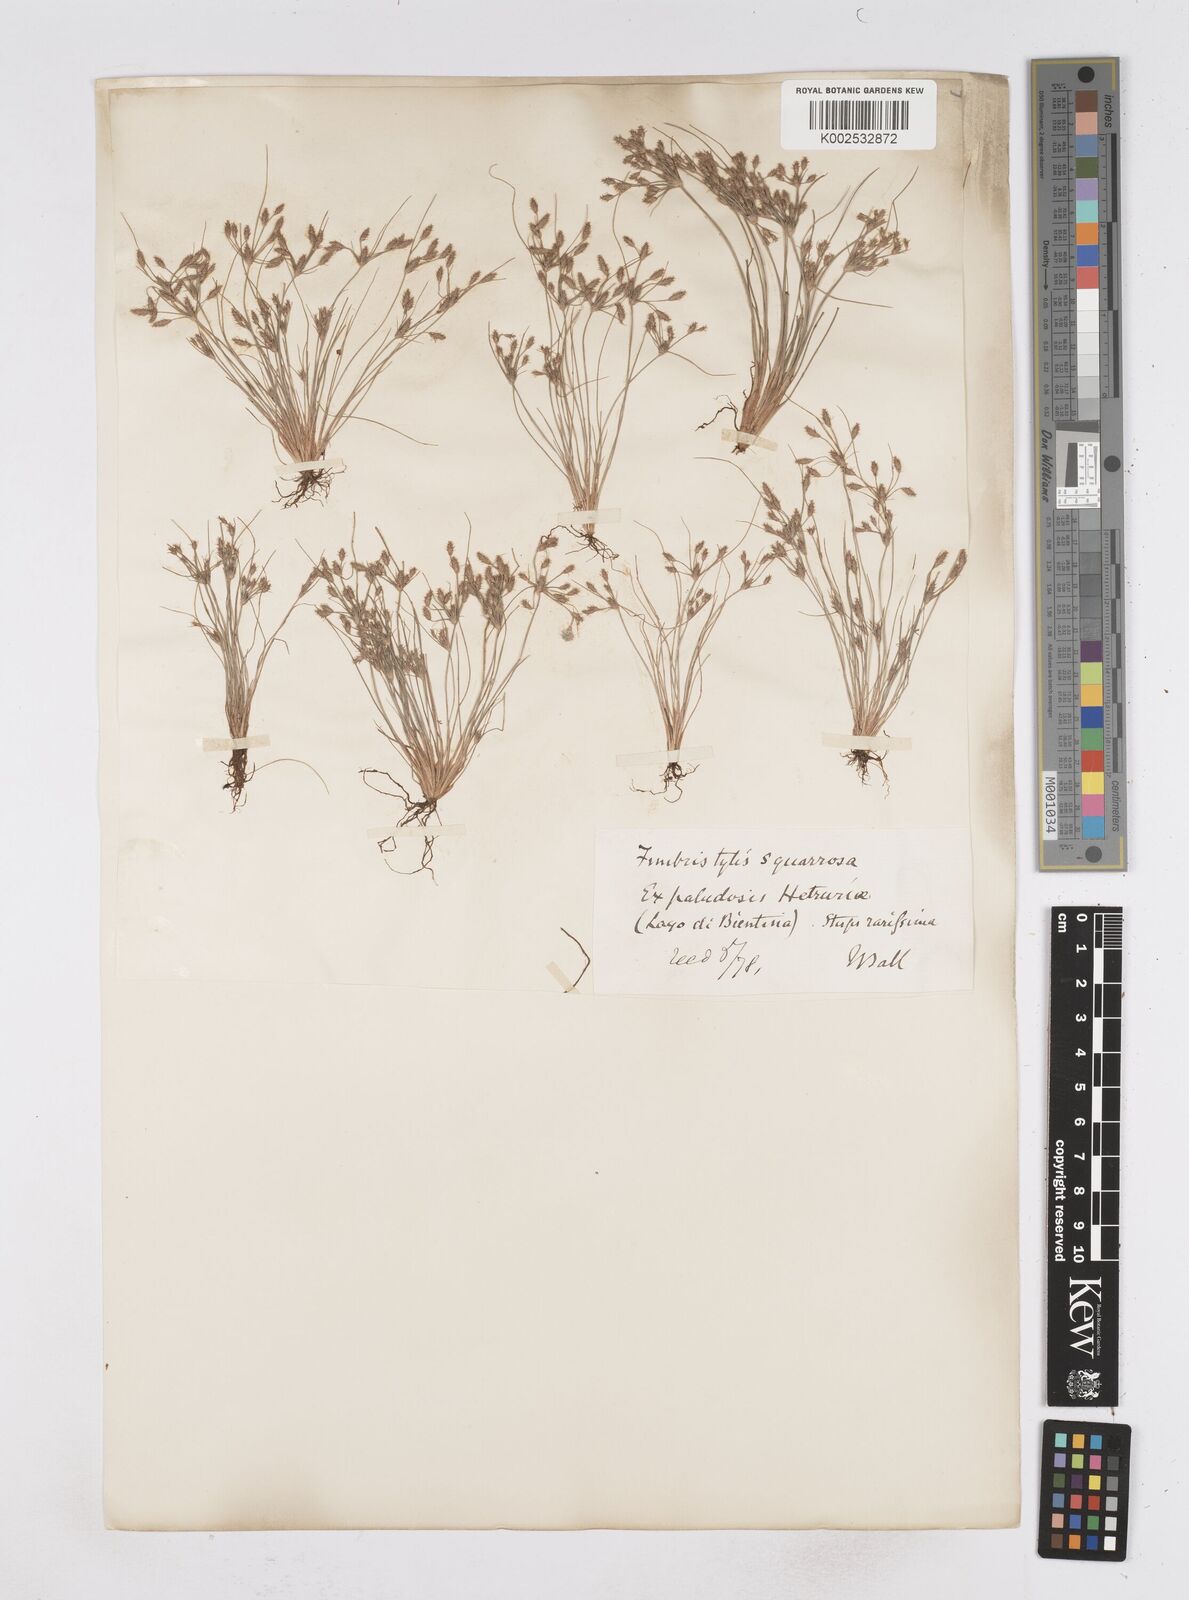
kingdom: Plantae
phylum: Tracheophyta
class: Liliopsida
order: Poales
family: Cyperaceae
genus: Fimbristylis
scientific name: Fimbristylis squarrosa
